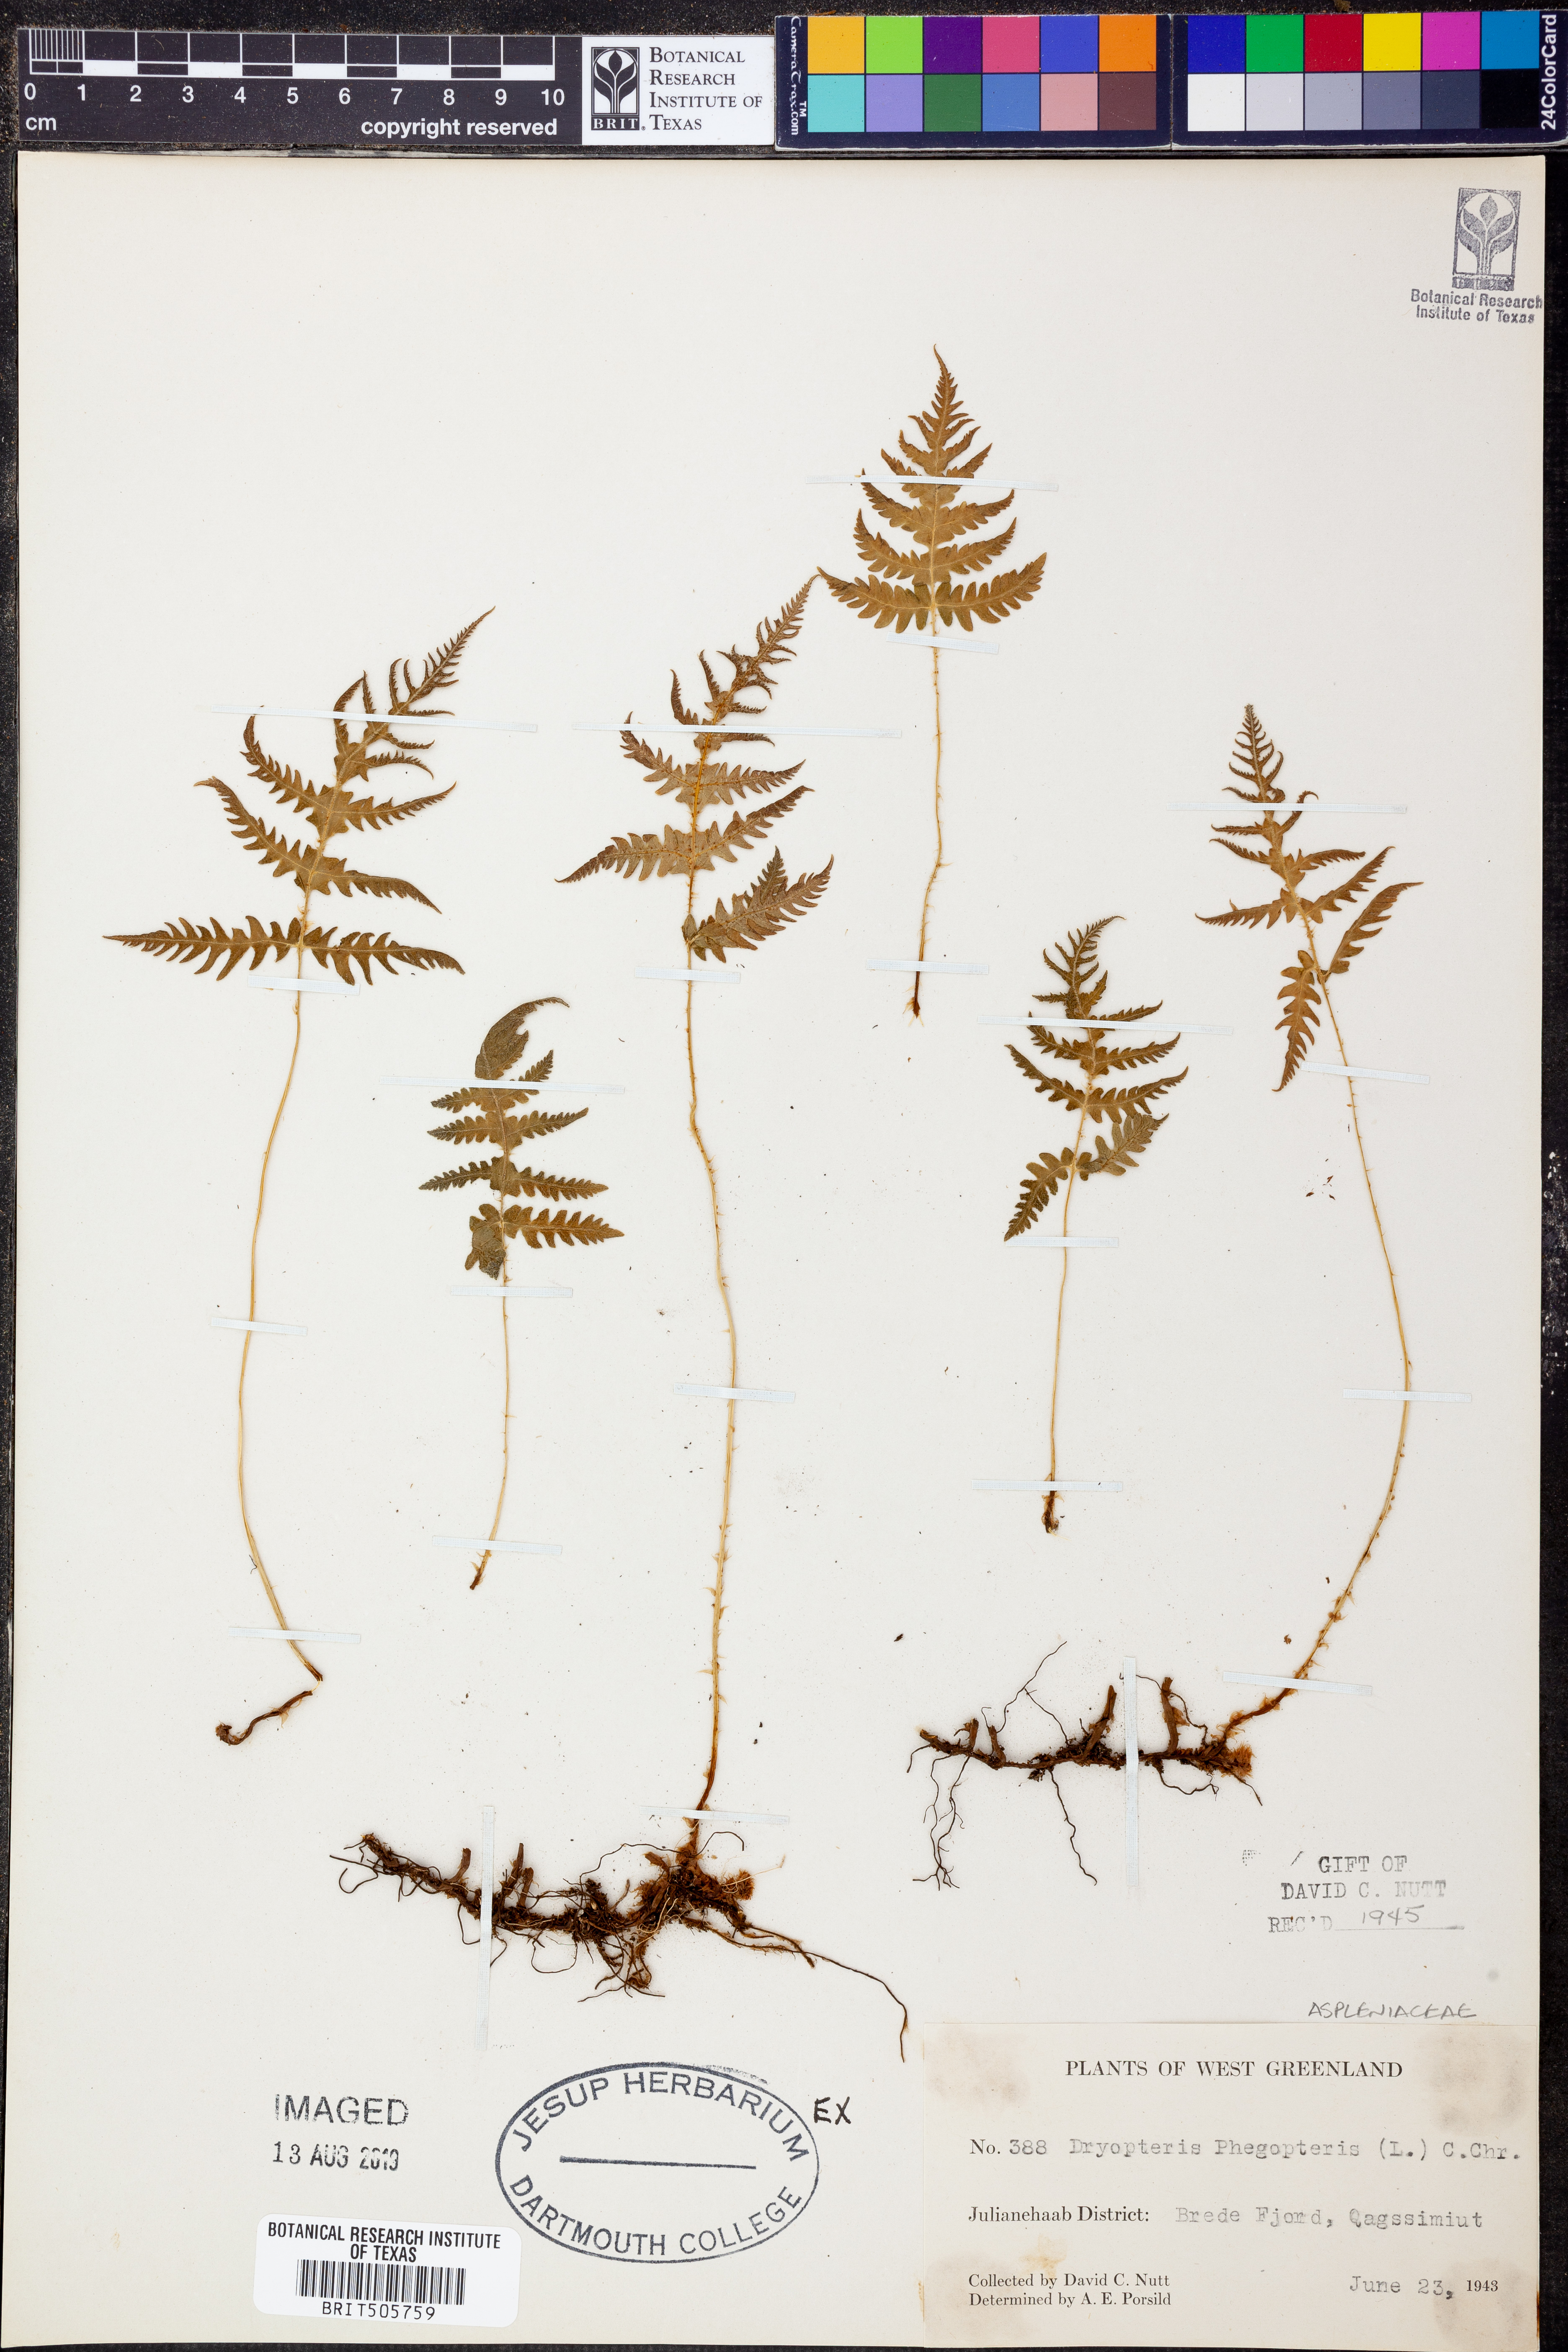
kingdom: Plantae
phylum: Tracheophyta
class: Polypodiopsida
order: Polypodiales
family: Thelypteridaceae
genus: Phegopteris
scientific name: Phegopteris connectilis
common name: Beech fern
